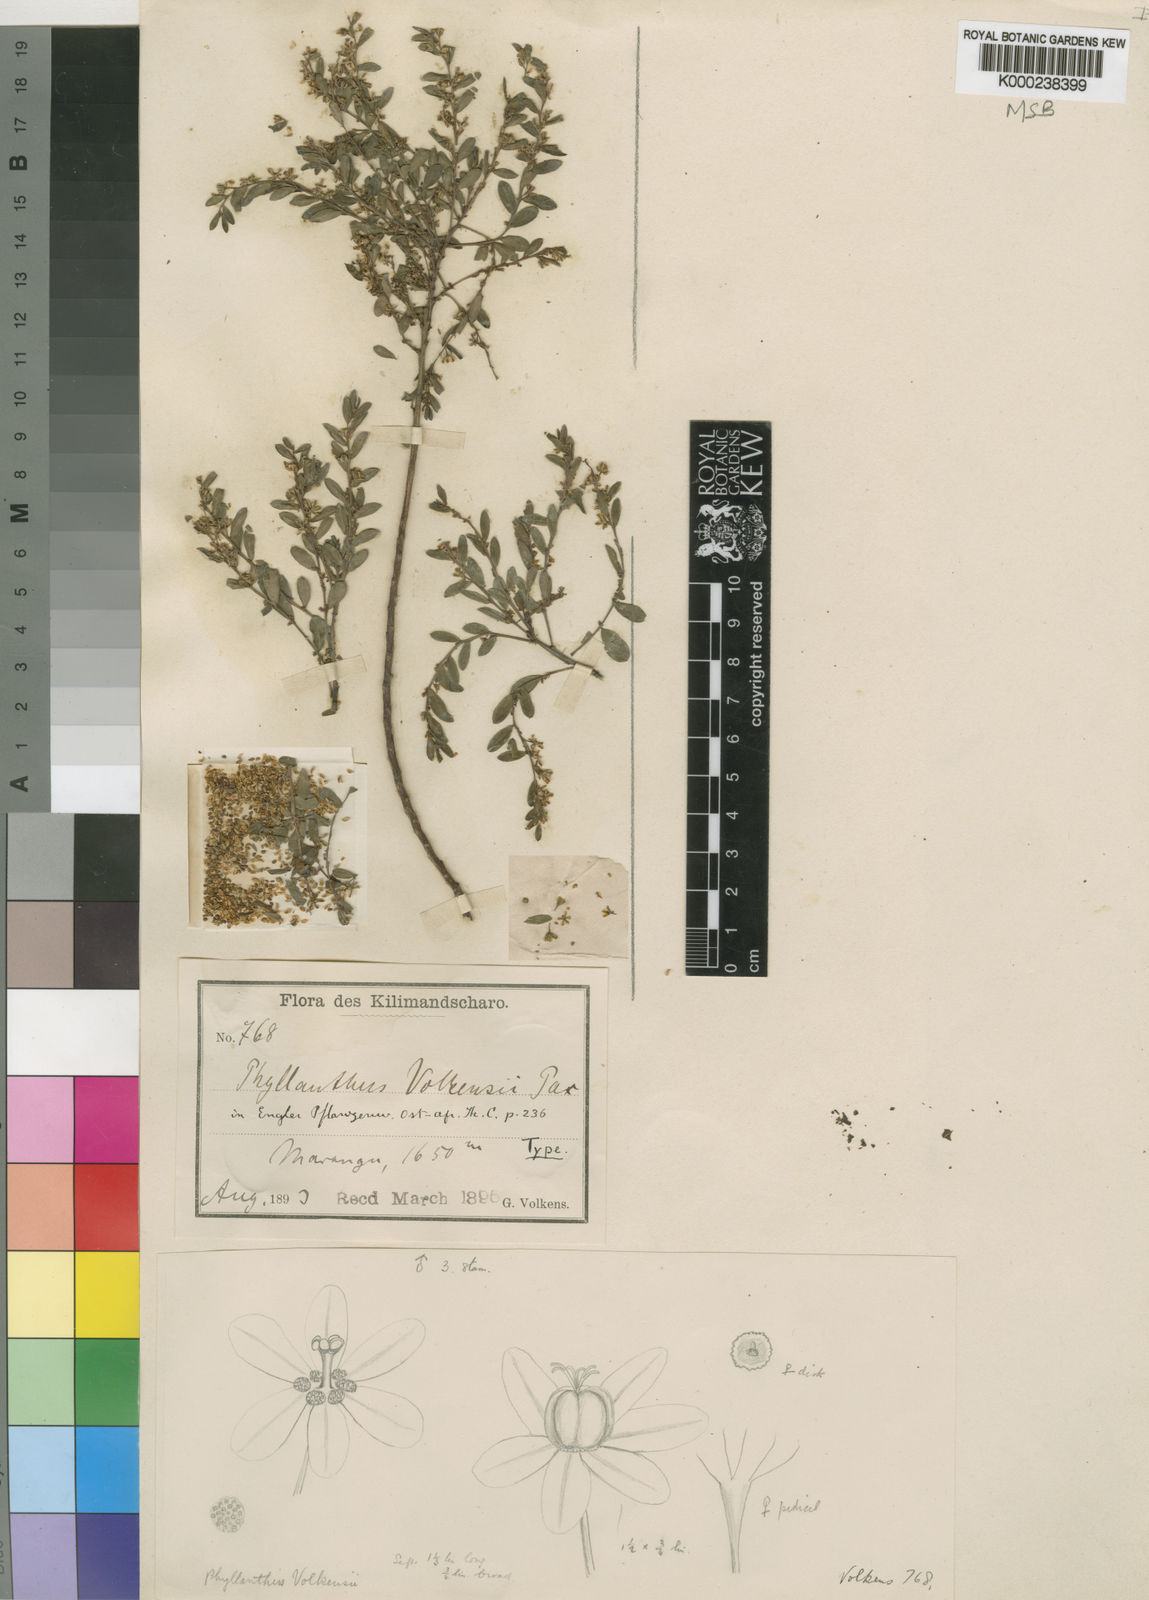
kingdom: Plantae
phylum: Tracheophyta
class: Magnoliopsida
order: Malpighiales
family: Phyllanthaceae
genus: Phyllanthus
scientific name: Phyllanthus volkensii
